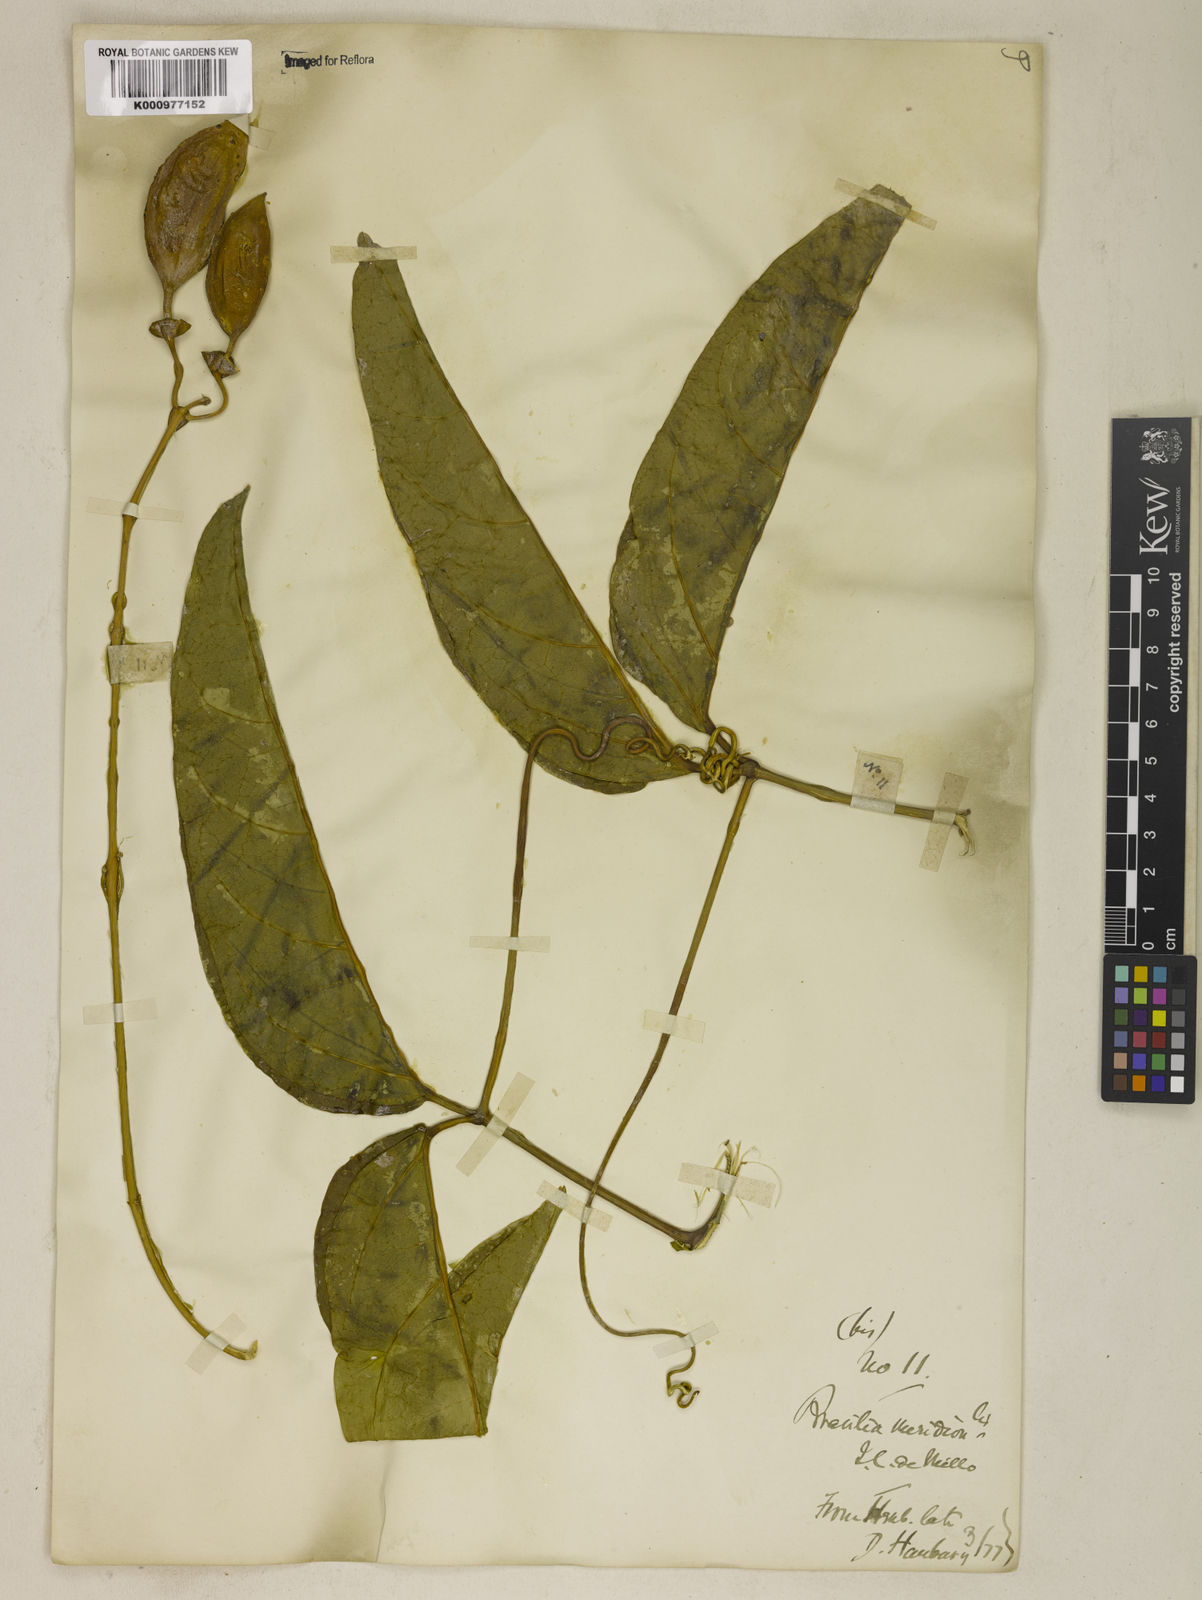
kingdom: Plantae
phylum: Tracheophyta
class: Magnoliopsida
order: Lamiales
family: Bignoniaceae
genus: Anemopaegma
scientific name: Anemopaegma chamberlaynii
